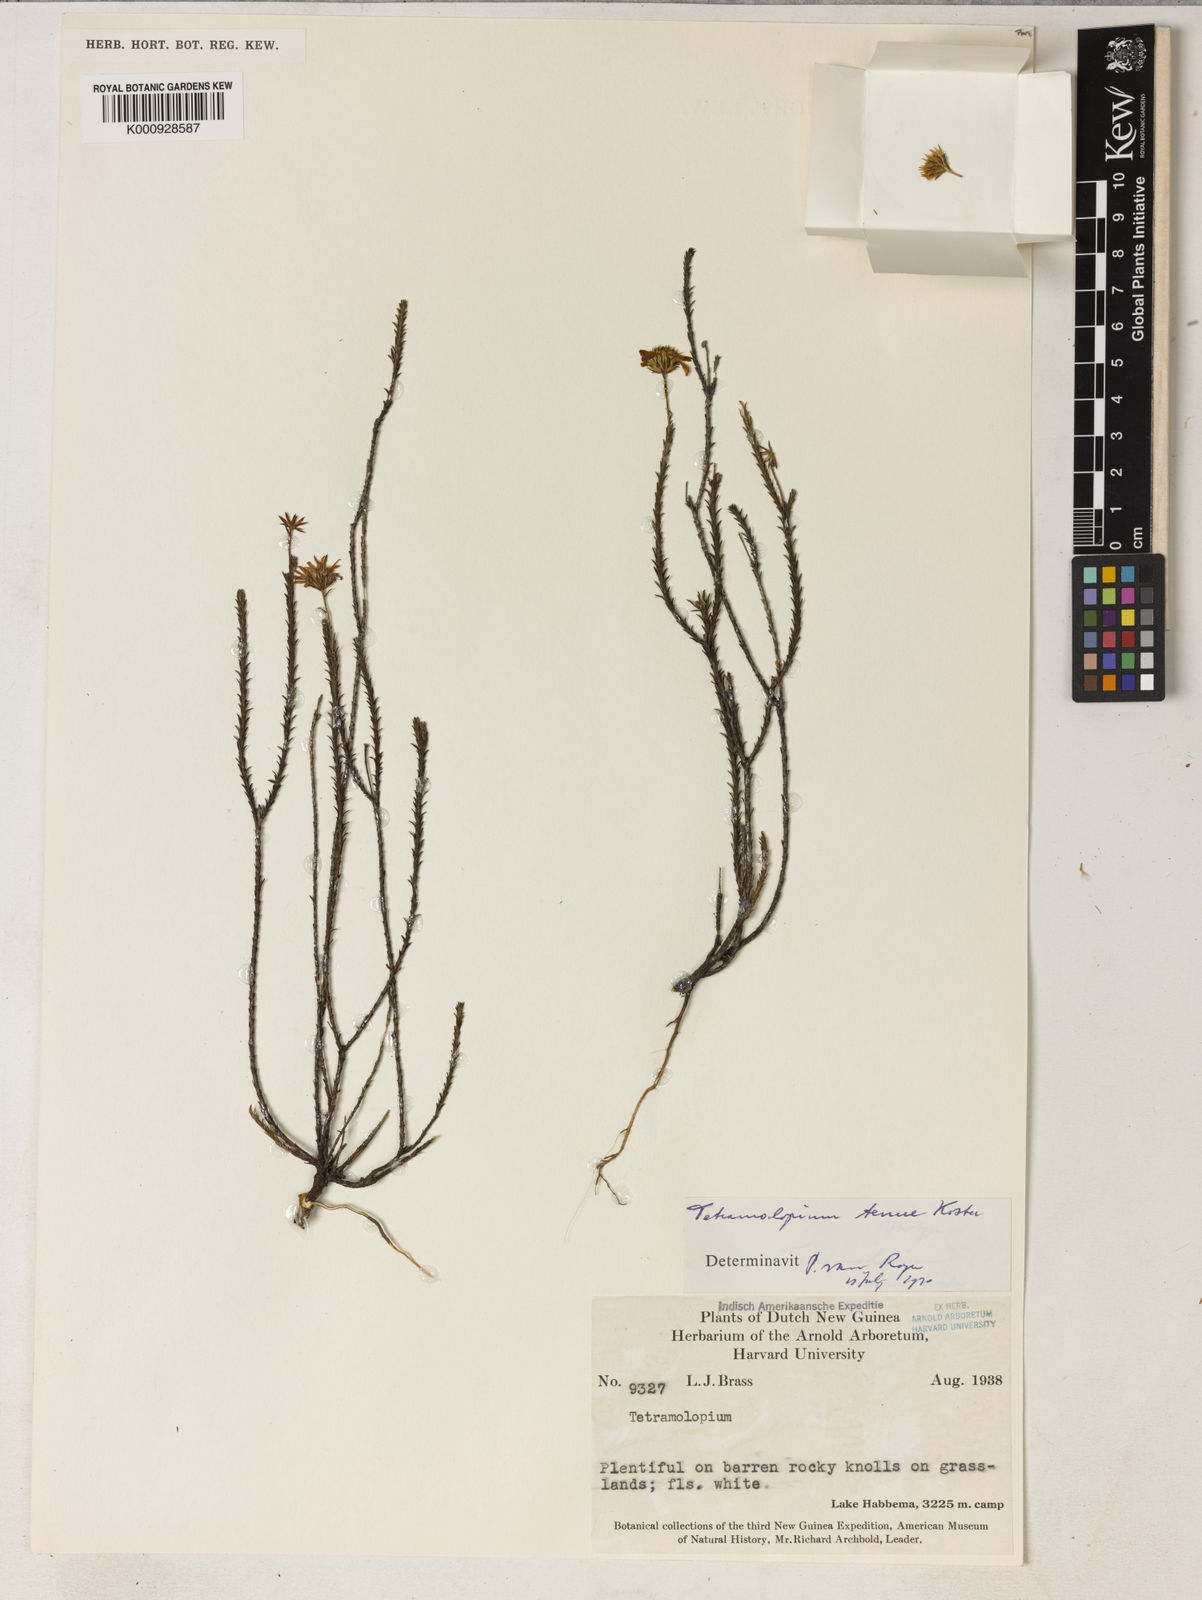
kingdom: Plantae
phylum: Tracheophyta
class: Magnoliopsida
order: Asterales
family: Asteraceae
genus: Tetramolopium
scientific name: Tetramolopium tenue
